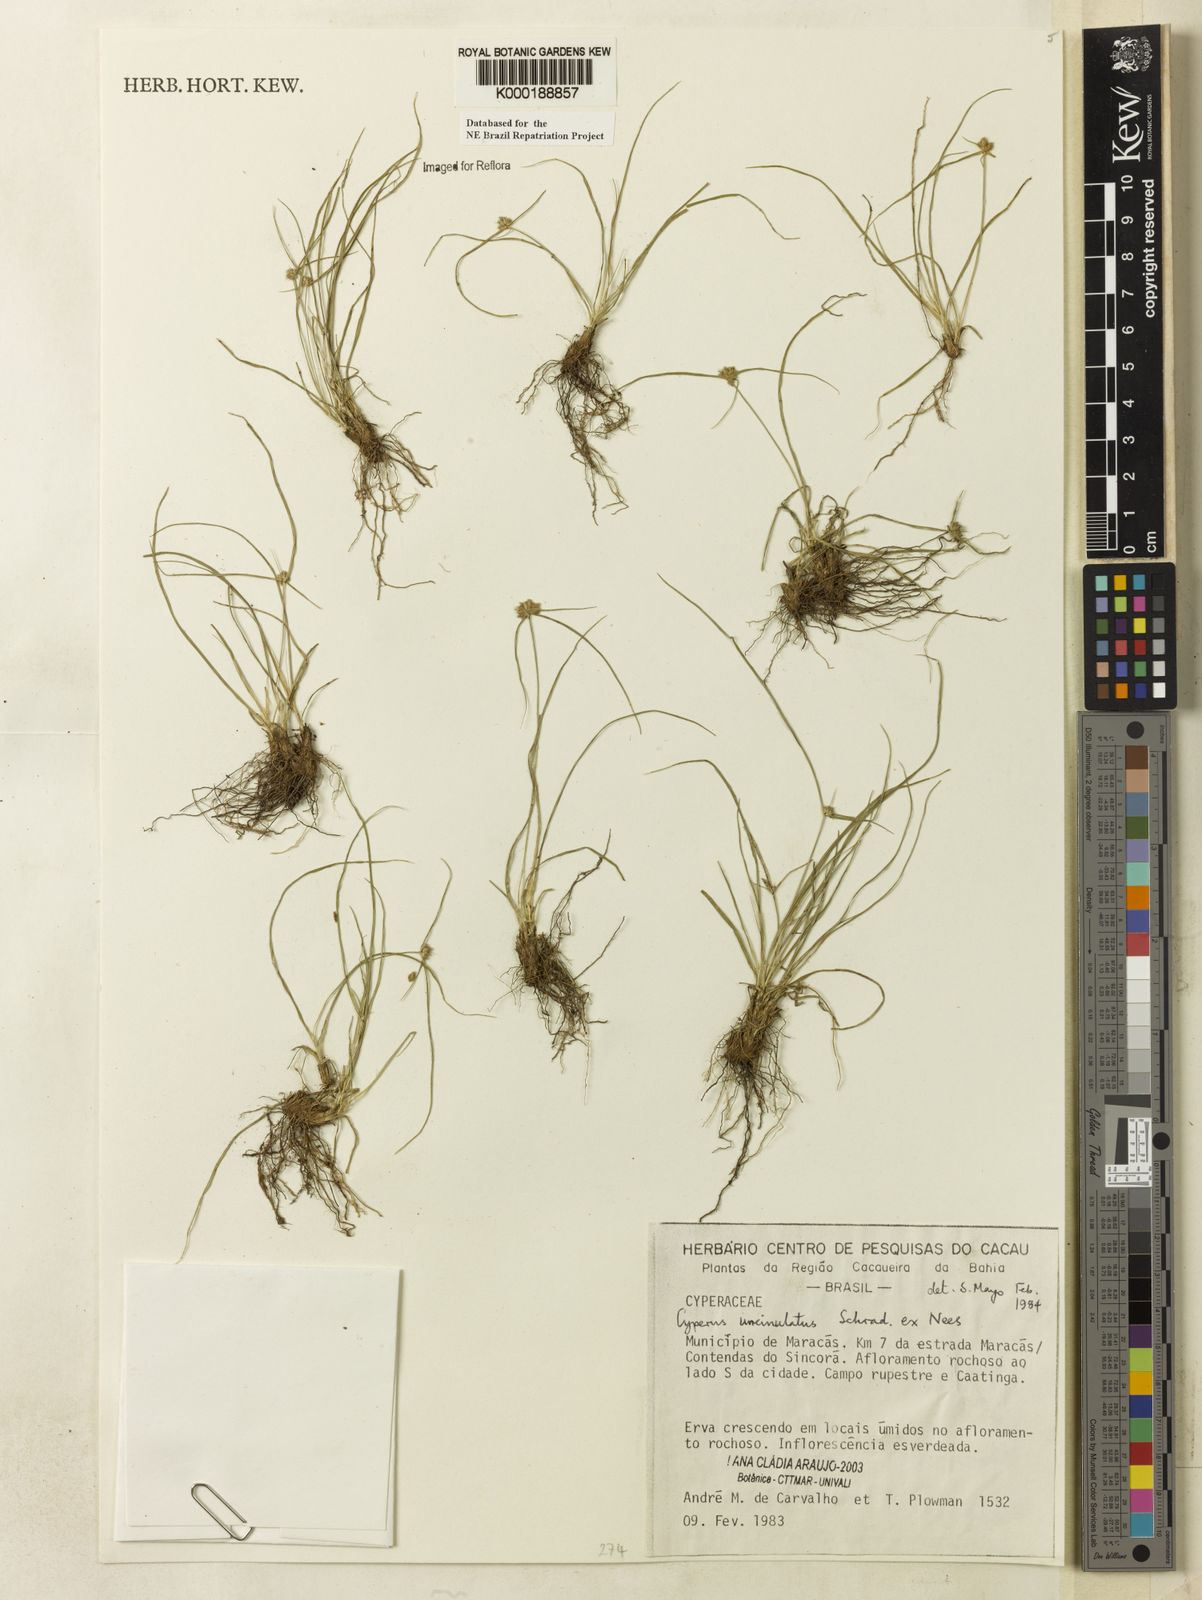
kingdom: Plantae
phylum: Tracheophyta
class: Liliopsida
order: Poales
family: Cyperaceae
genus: Cyperus
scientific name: Cyperus uncinulatus
